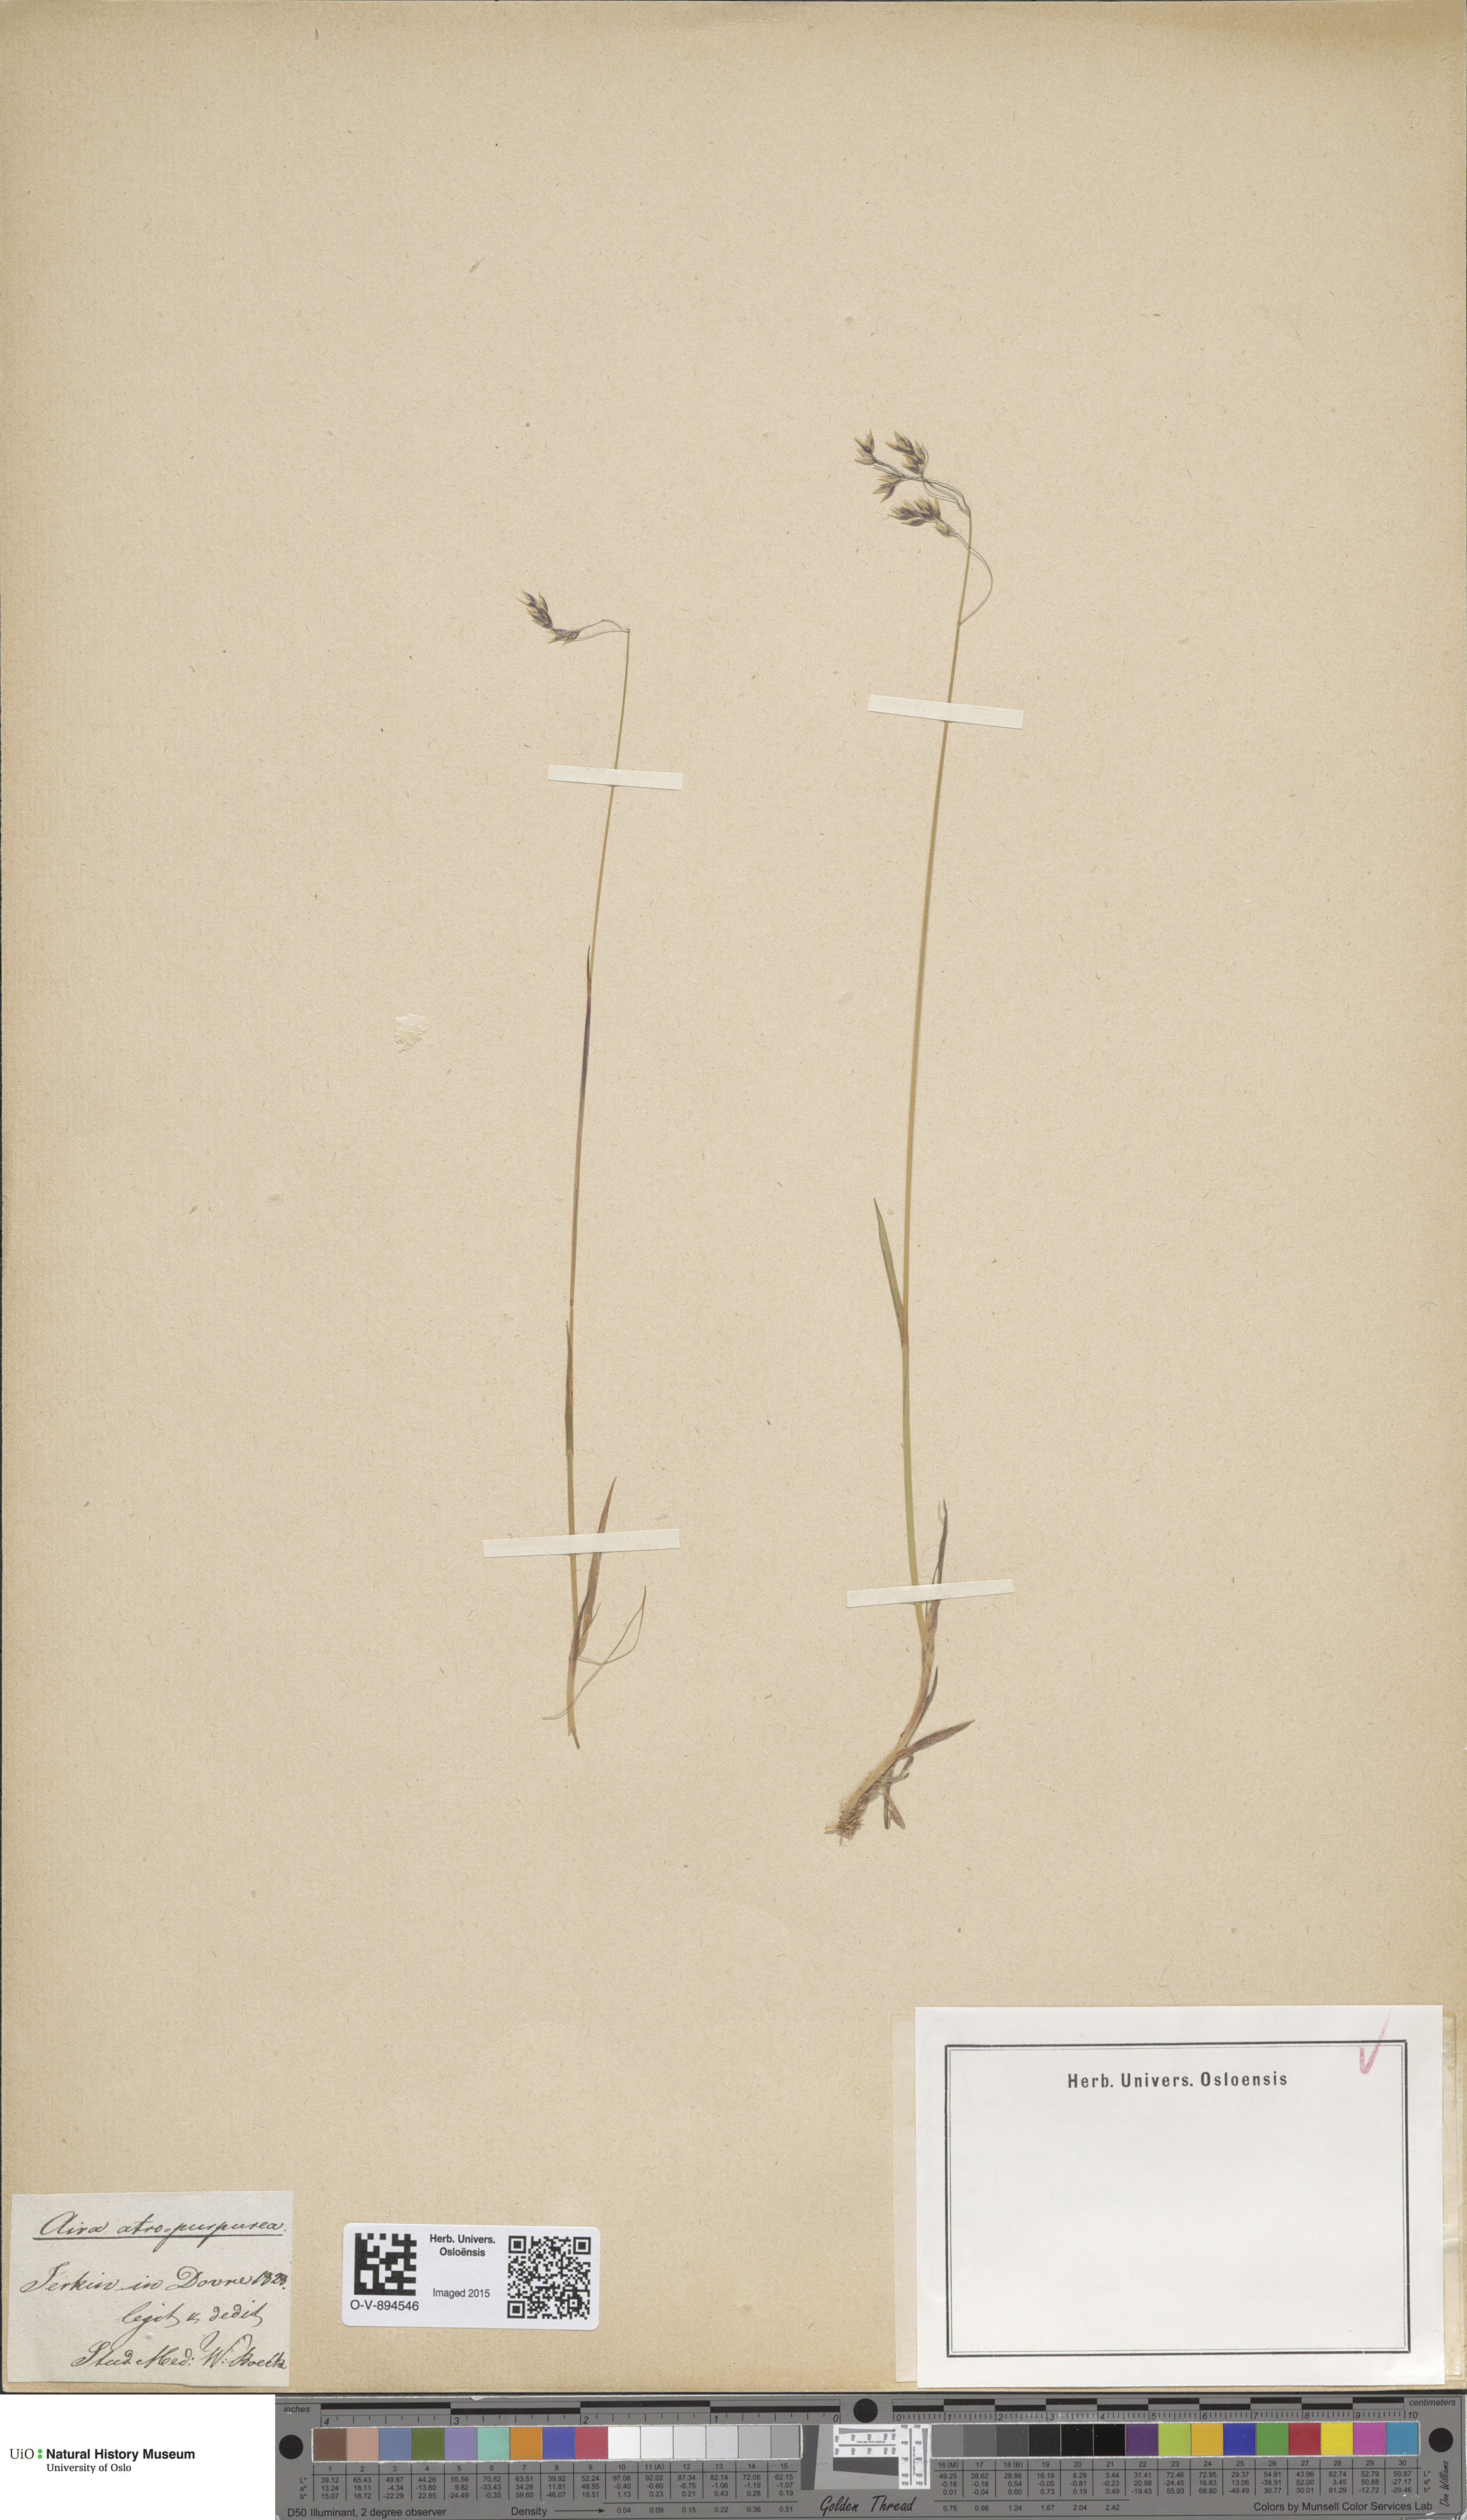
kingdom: Plantae
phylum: Tracheophyta
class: Liliopsida
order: Poales
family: Poaceae
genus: Vahlodea
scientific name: Vahlodea atropurpurea
